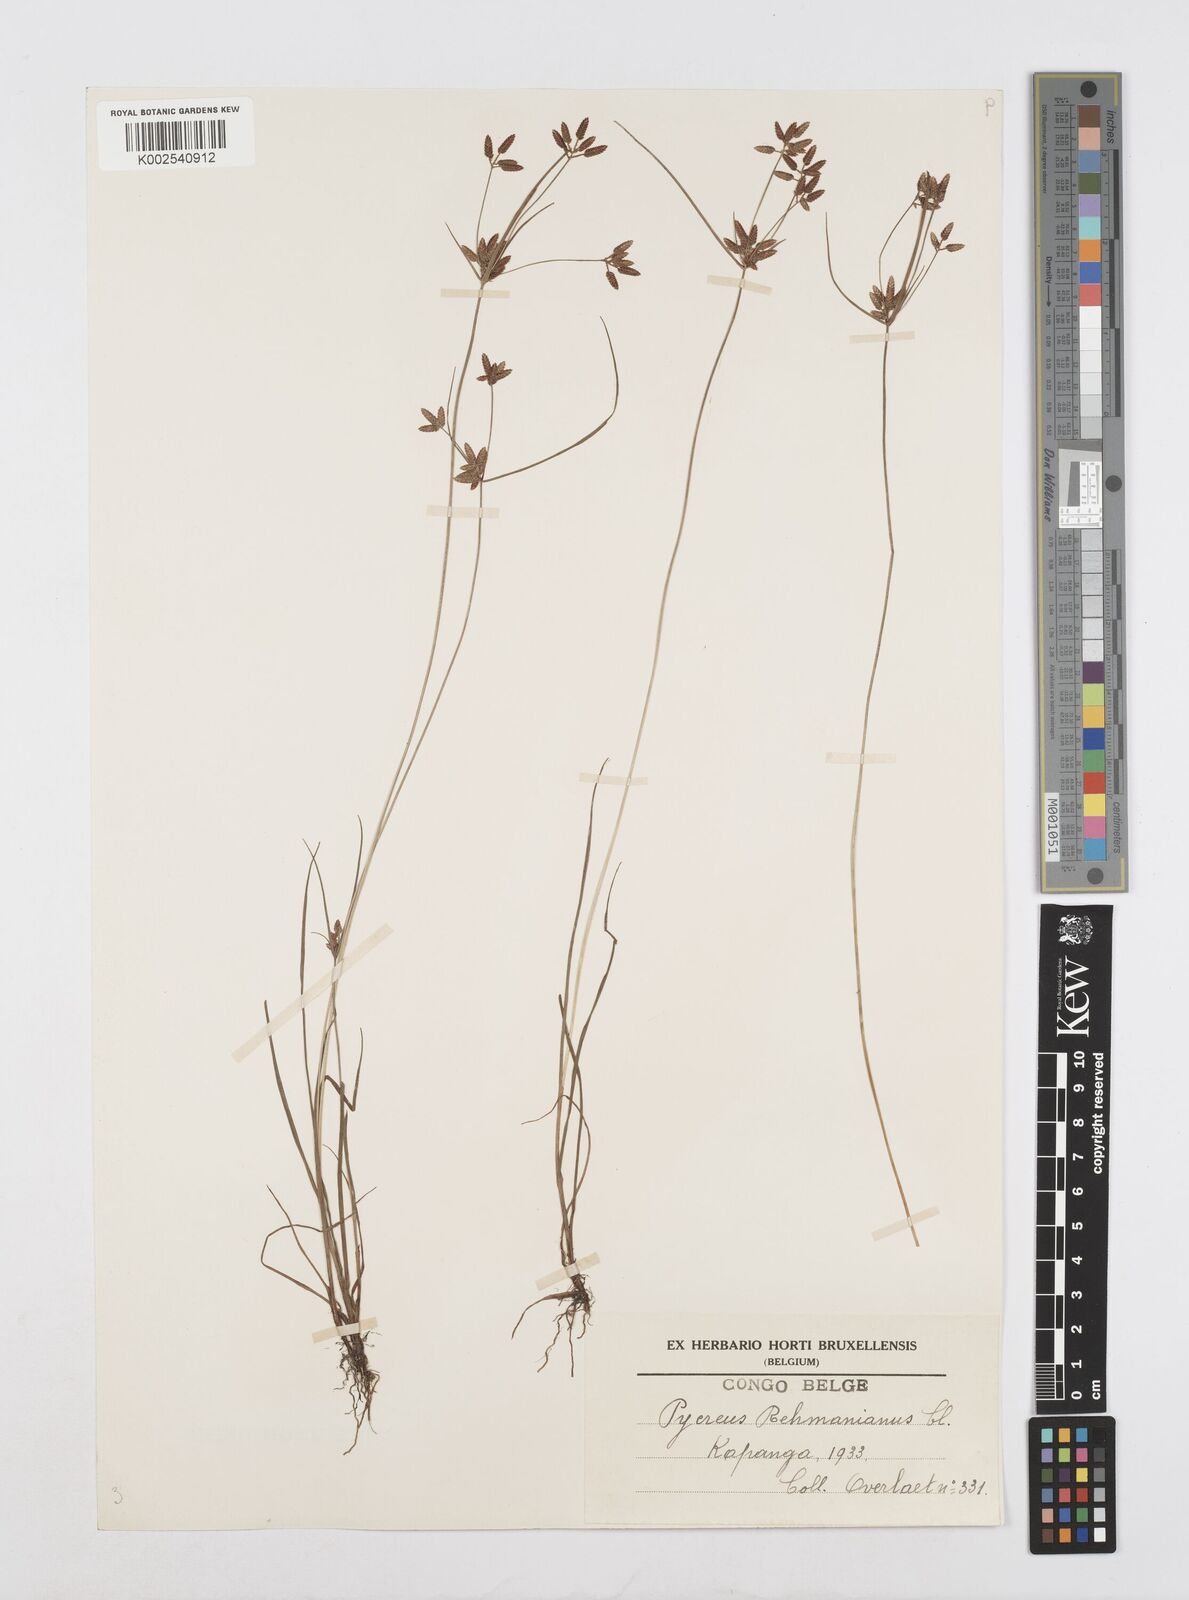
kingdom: Plantae
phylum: Tracheophyta
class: Liliopsida
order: Poales
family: Cyperaceae
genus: Cyperus
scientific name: Cyperus lipopygmaeus
